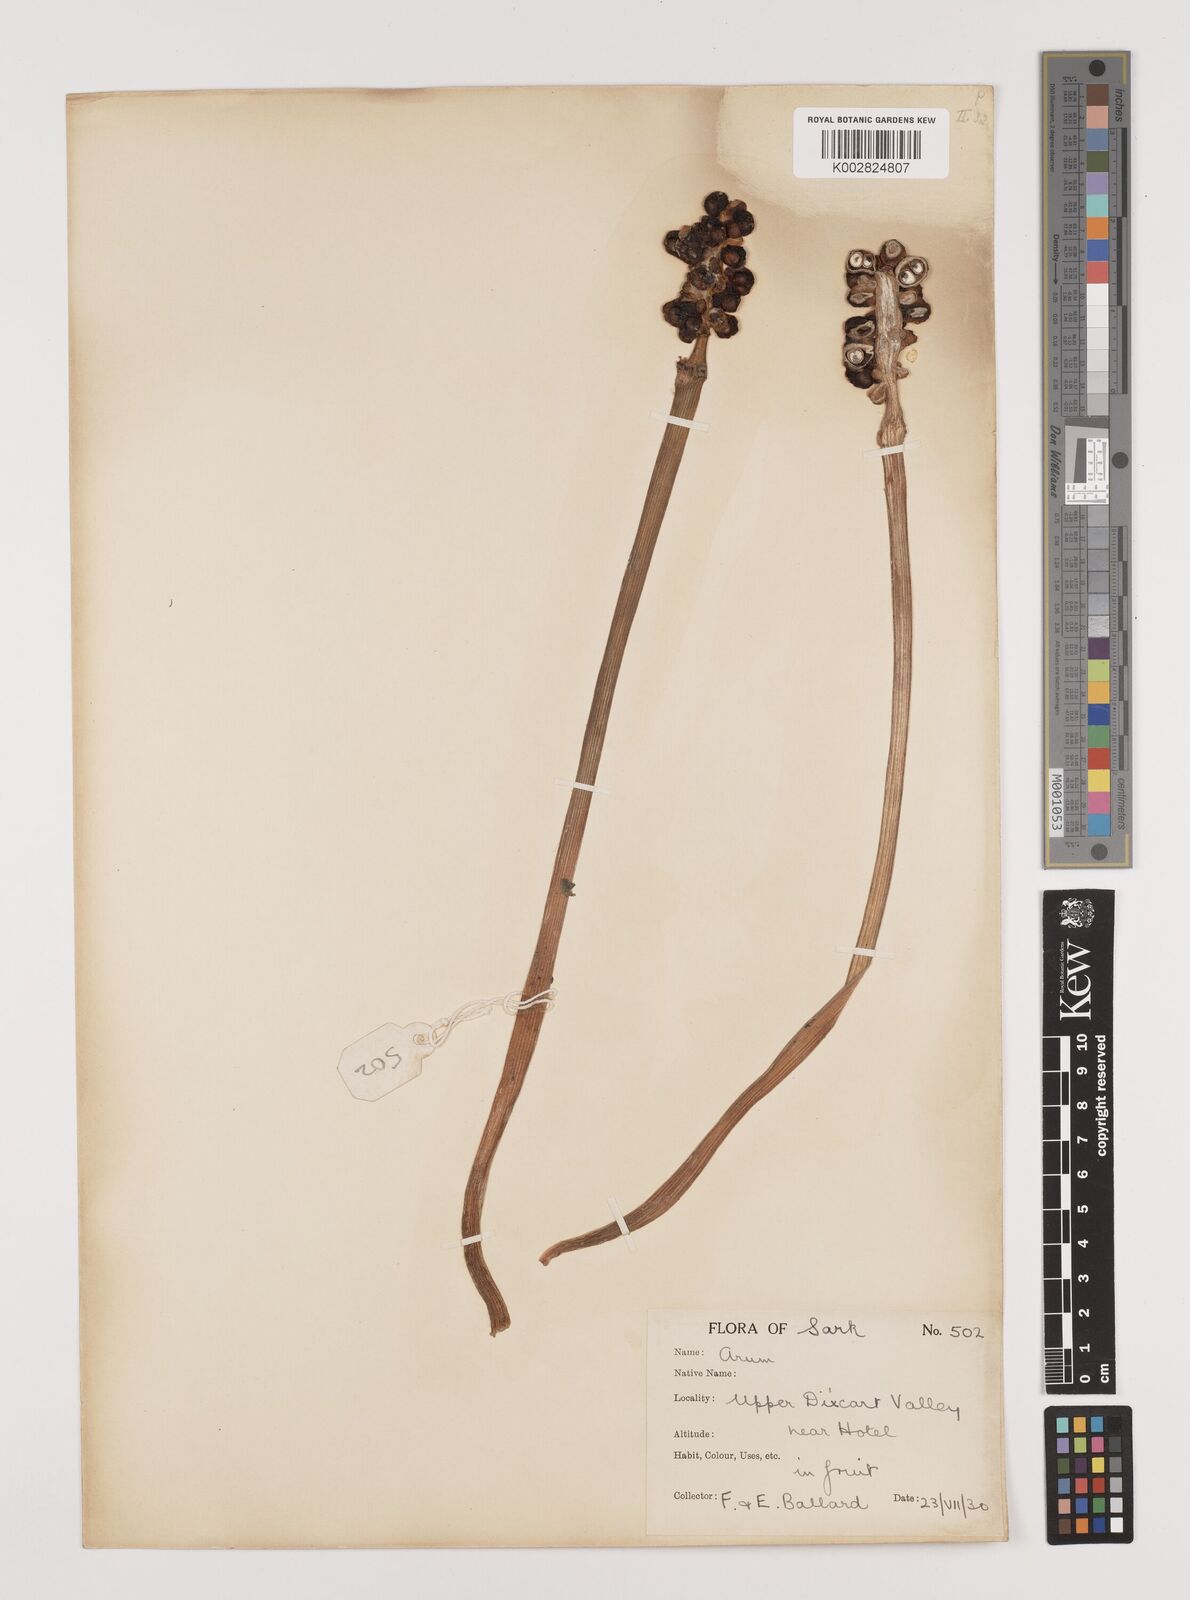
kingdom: Plantae
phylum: Tracheophyta
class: Liliopsida
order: Alismatales
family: Araceae
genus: Arum
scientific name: Arum maculatum
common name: Lords-and-ladies
